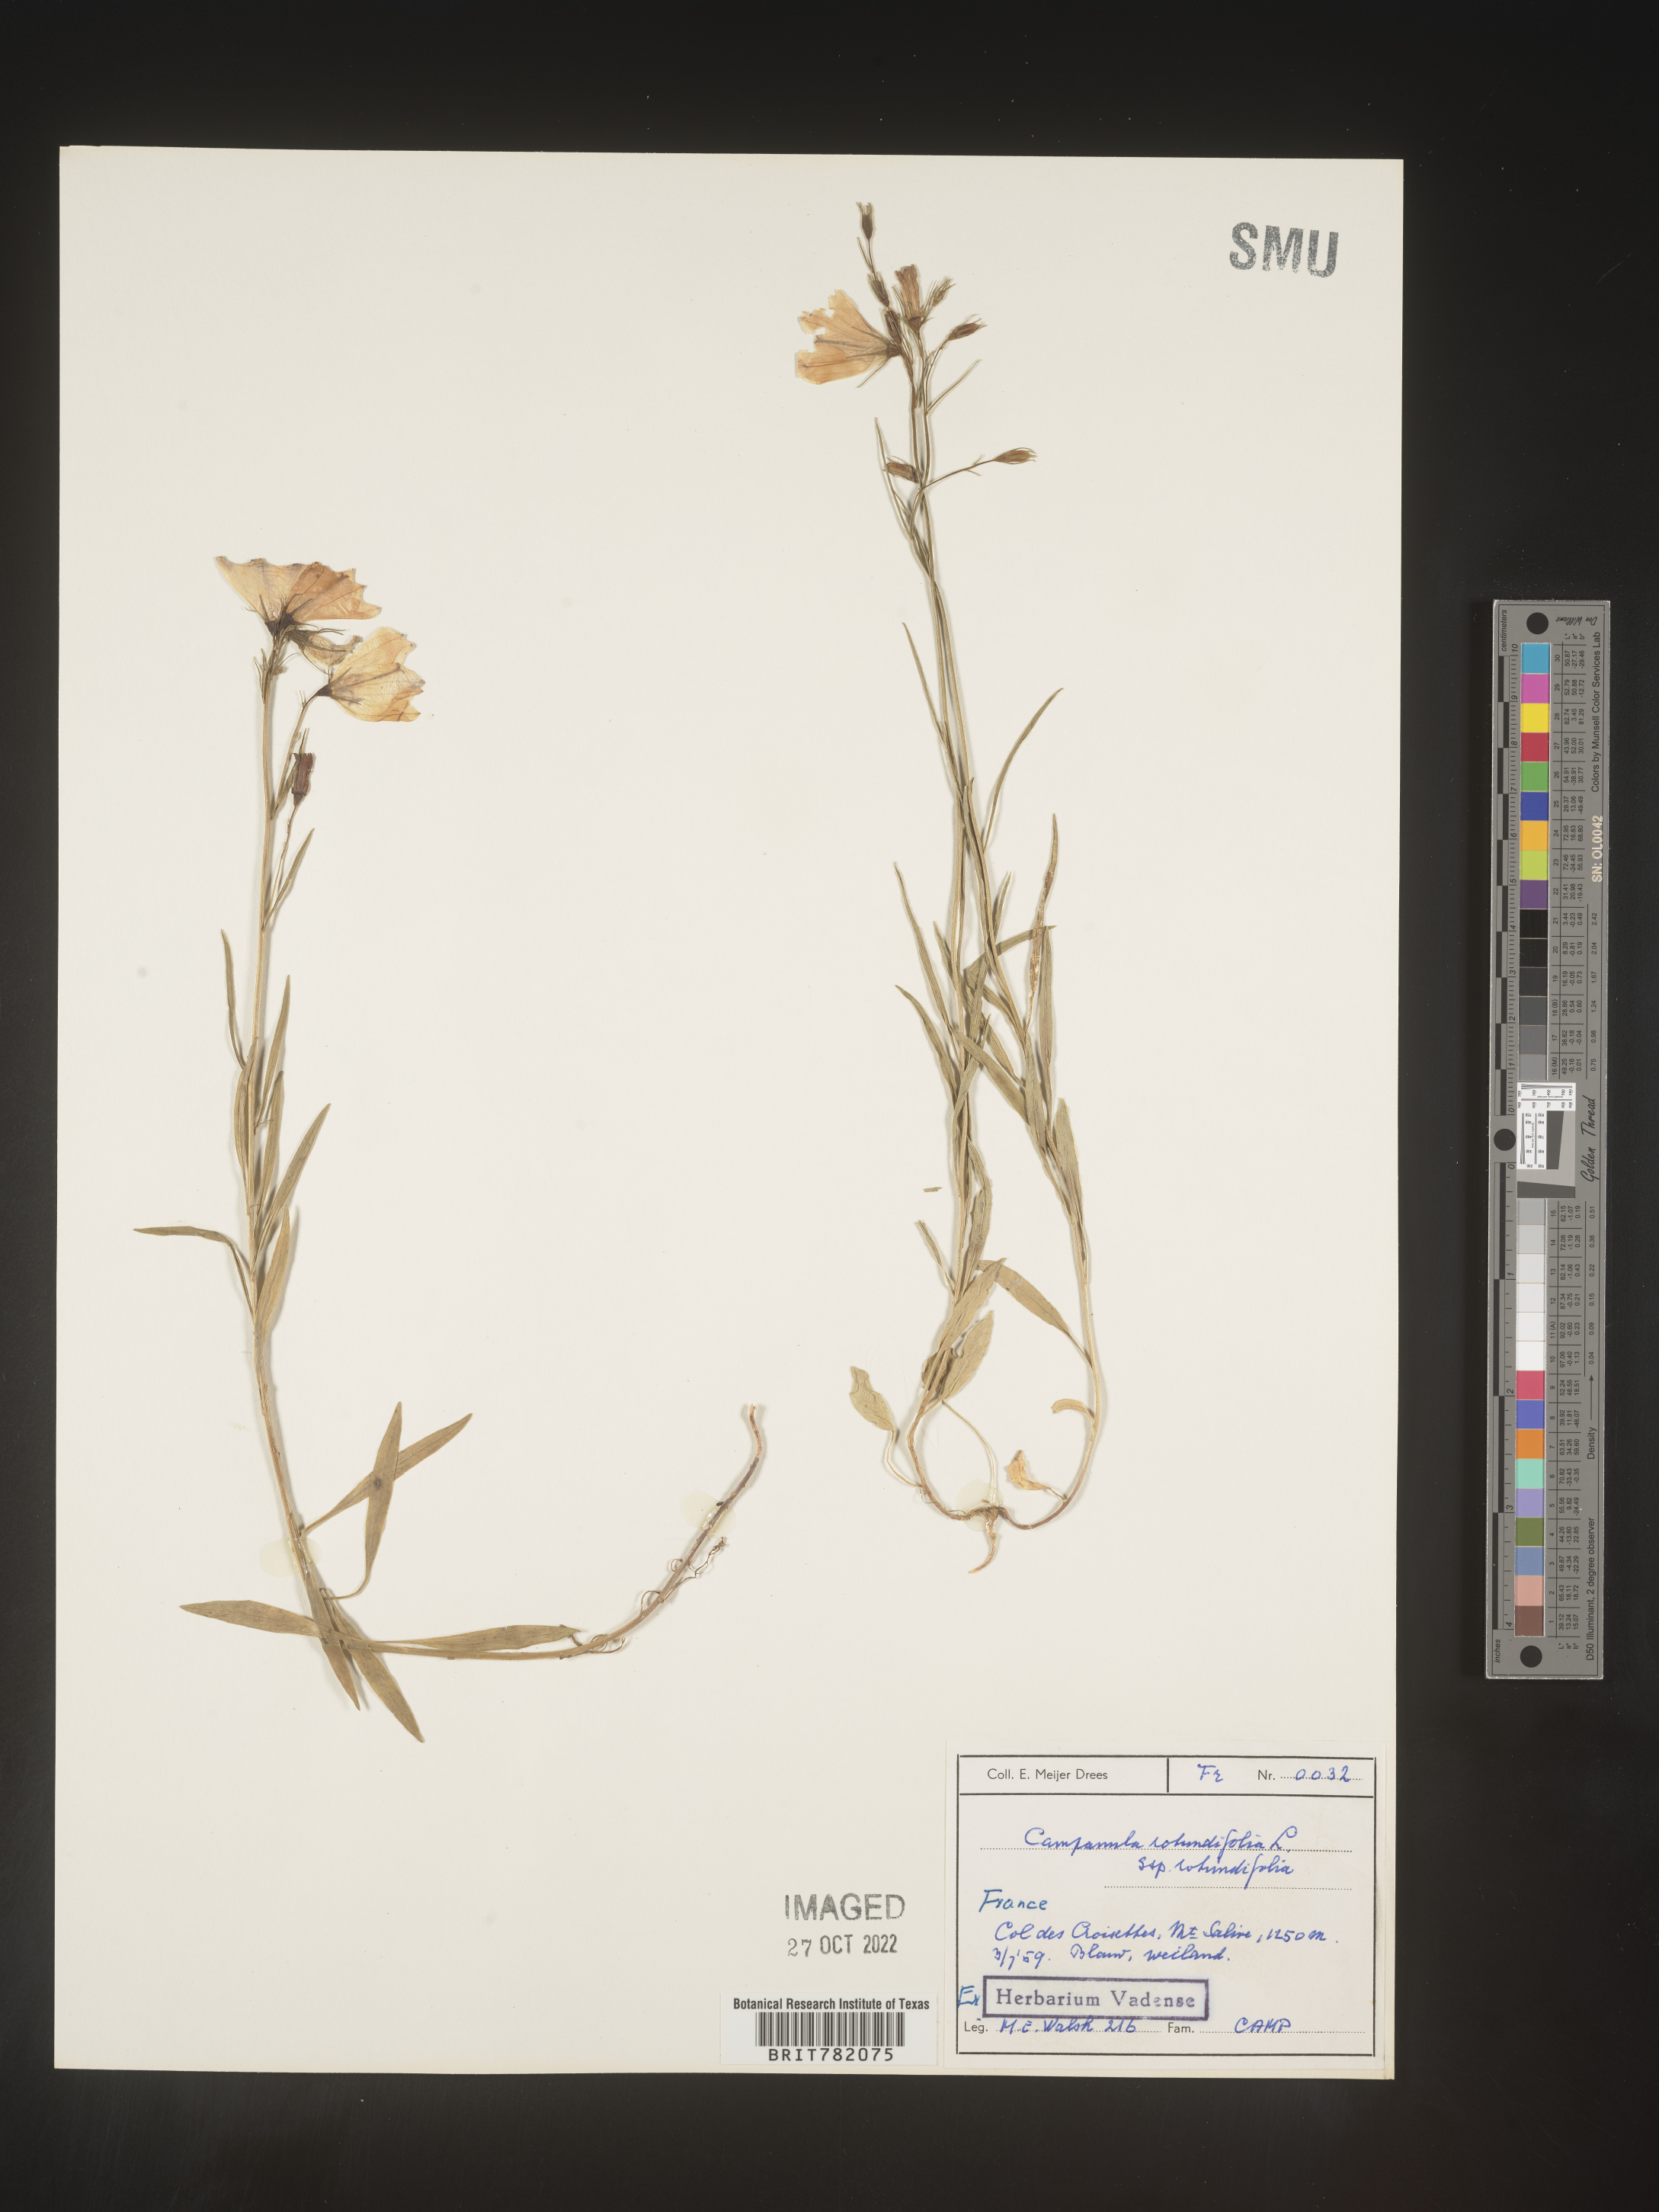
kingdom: Plantae
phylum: Tracheophyta
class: Magnoliopsida
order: Asterales
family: Campanulaceae
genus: Campanula
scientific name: Campanula rotundifolia
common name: Harebell
